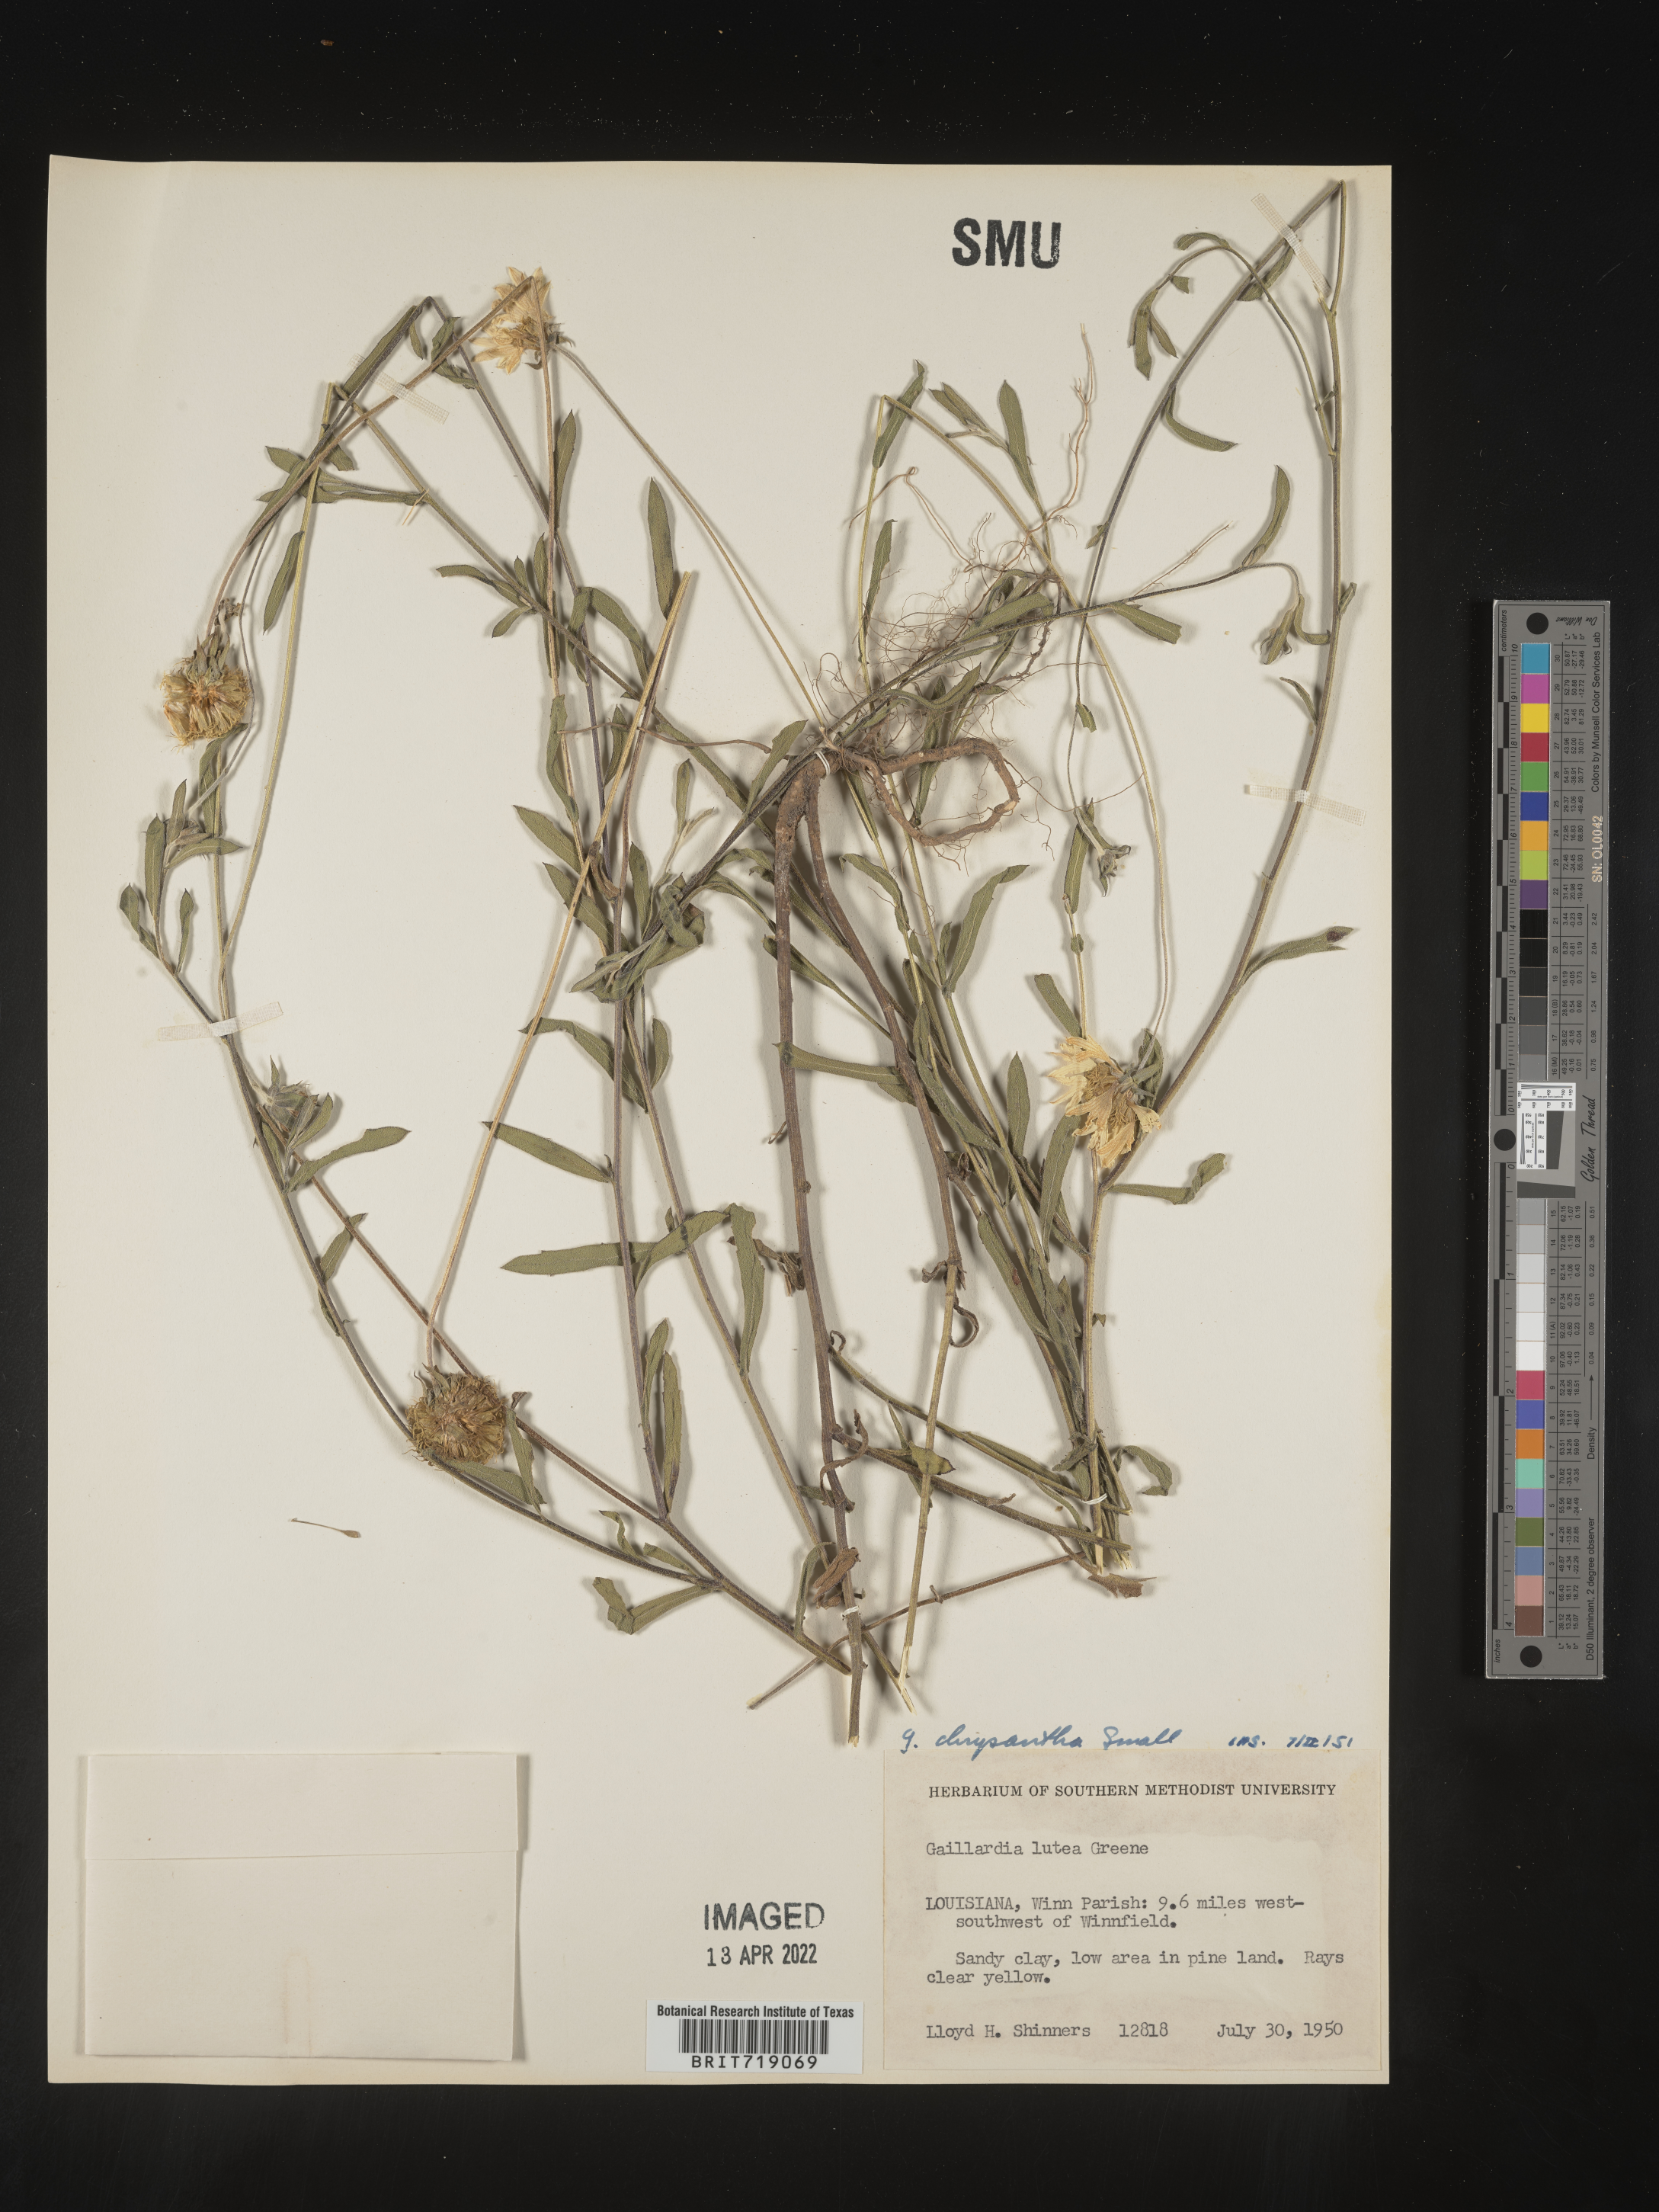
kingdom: Plantae
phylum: Tracheophyta
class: Magnoliopsida
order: Asterales
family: Asteraceae
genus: Gaillardia
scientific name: Gaillardia aestivalis
